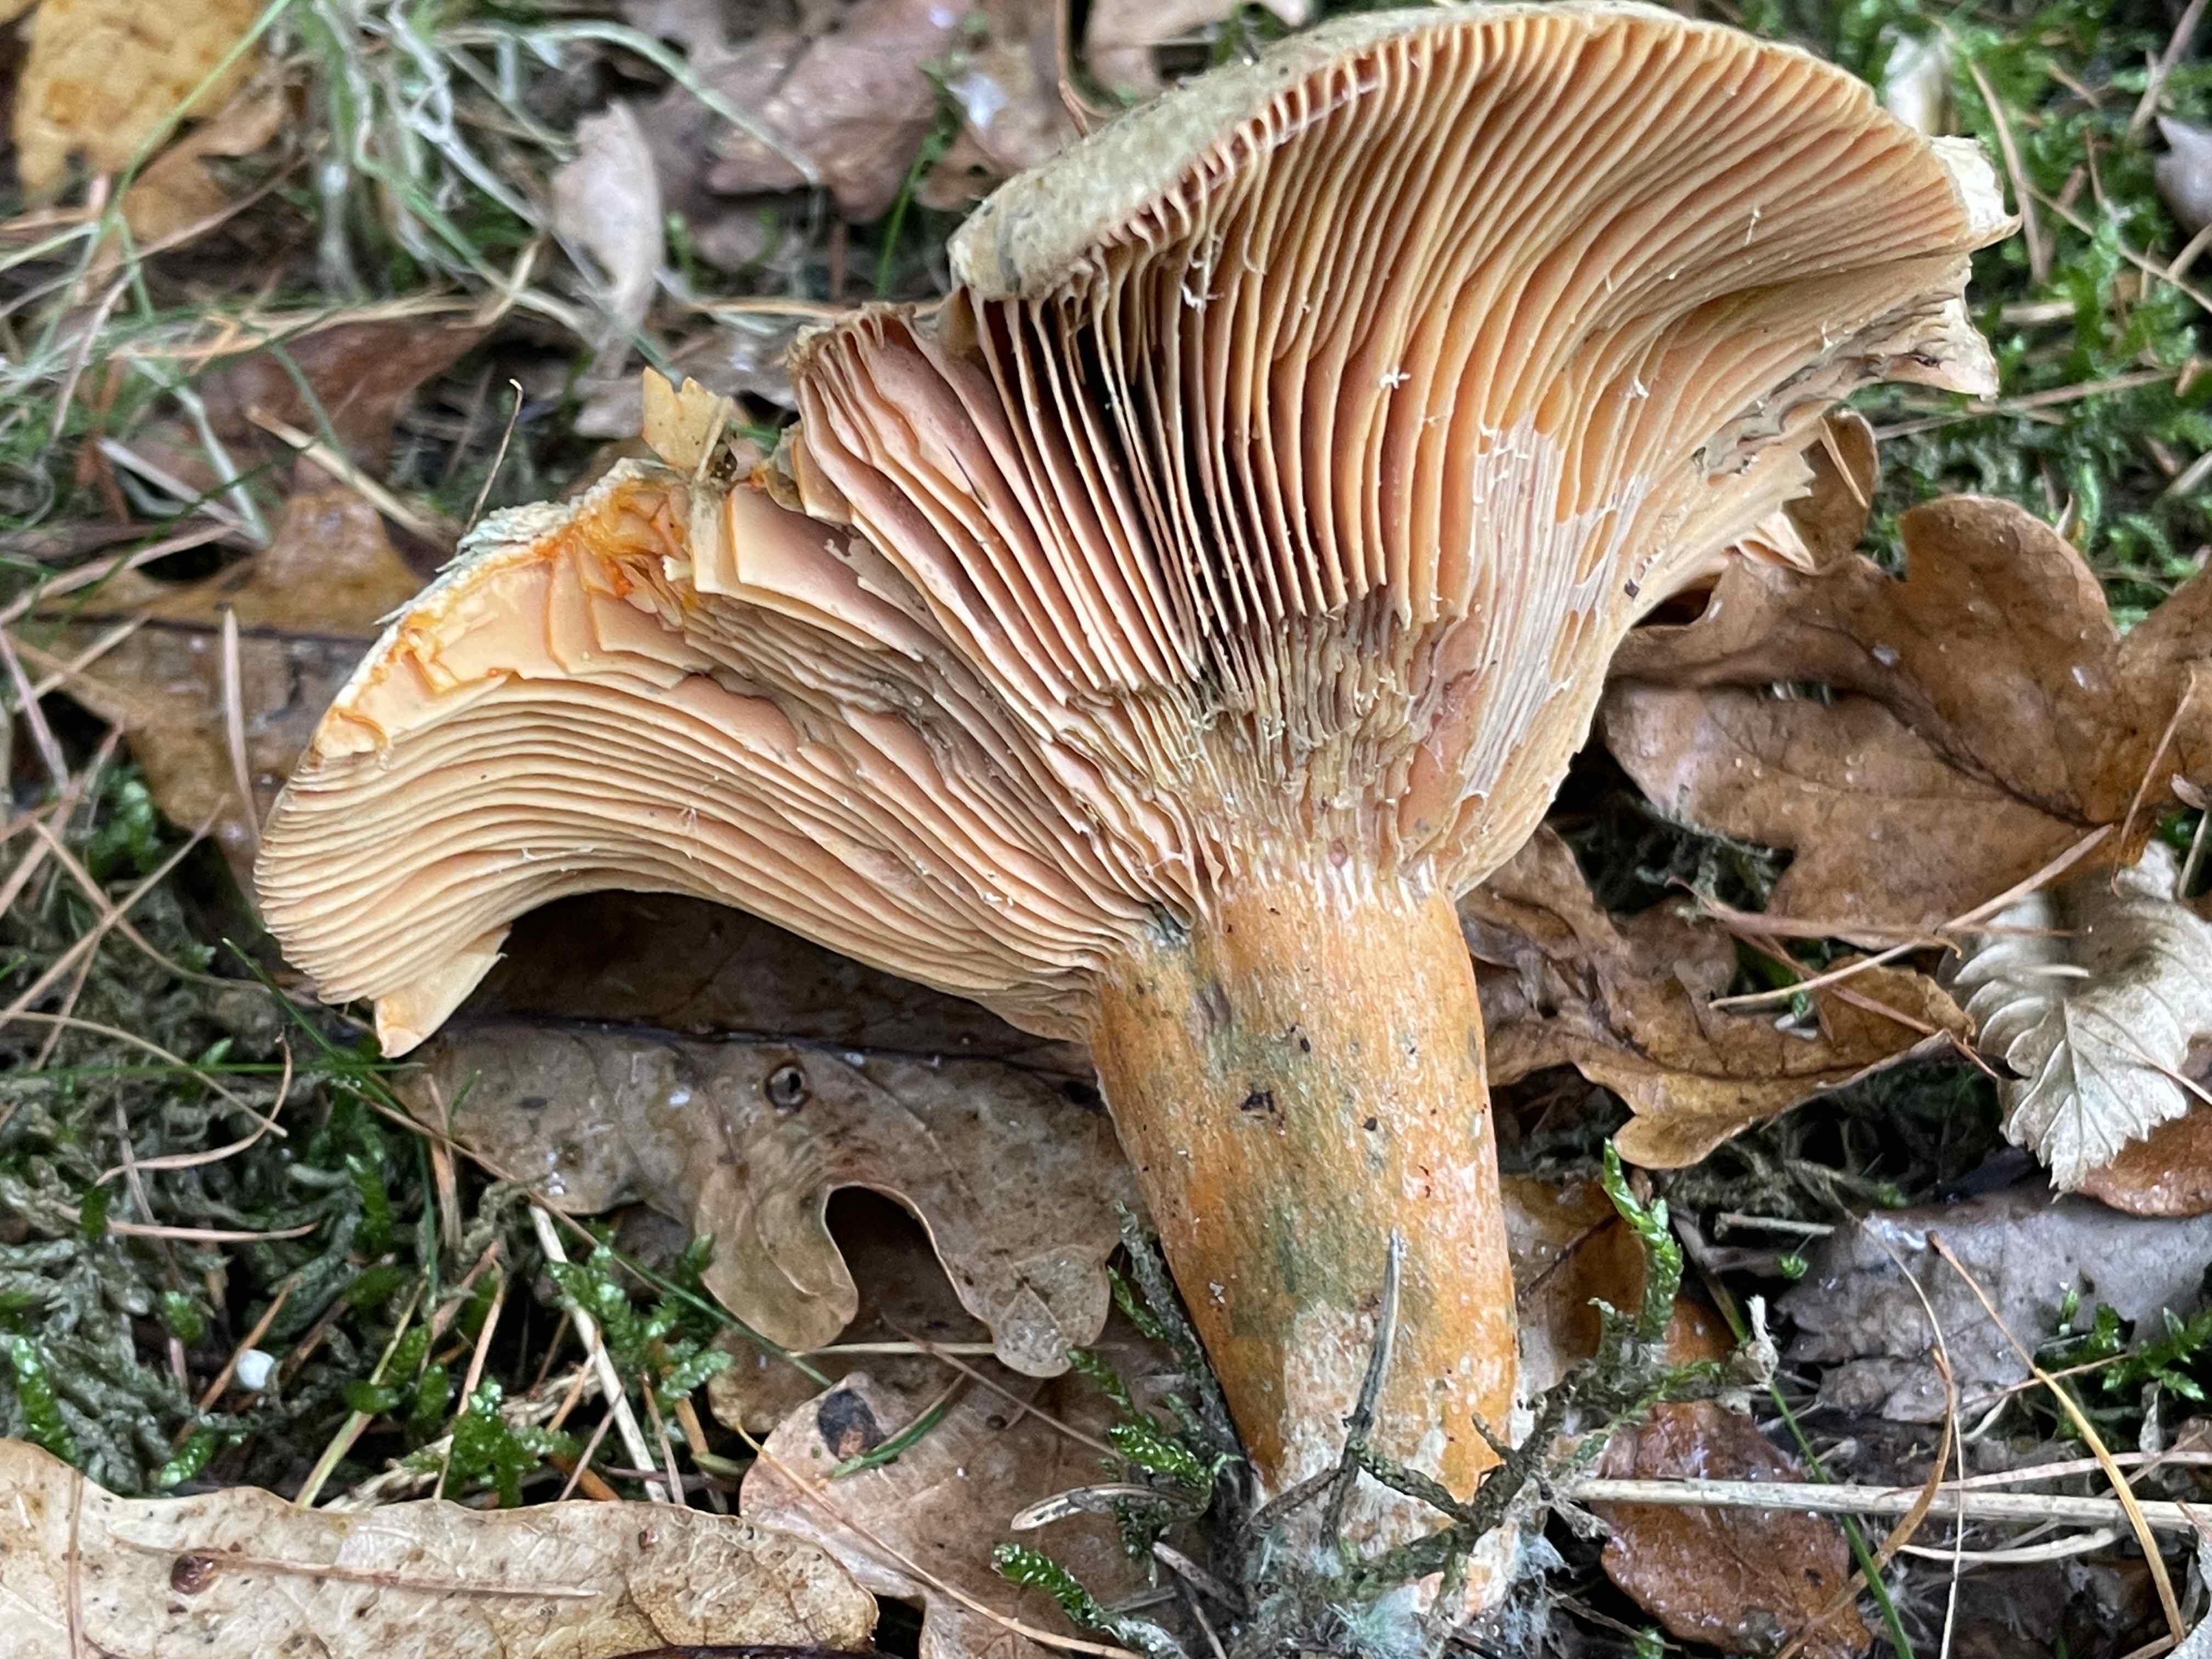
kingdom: Fungi
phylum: Basidiomycota
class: Agaricomycetes
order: Russulales
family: Russulaceae
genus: Lactarius
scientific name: Lactarius deterrimus
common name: gran-mælkehat
